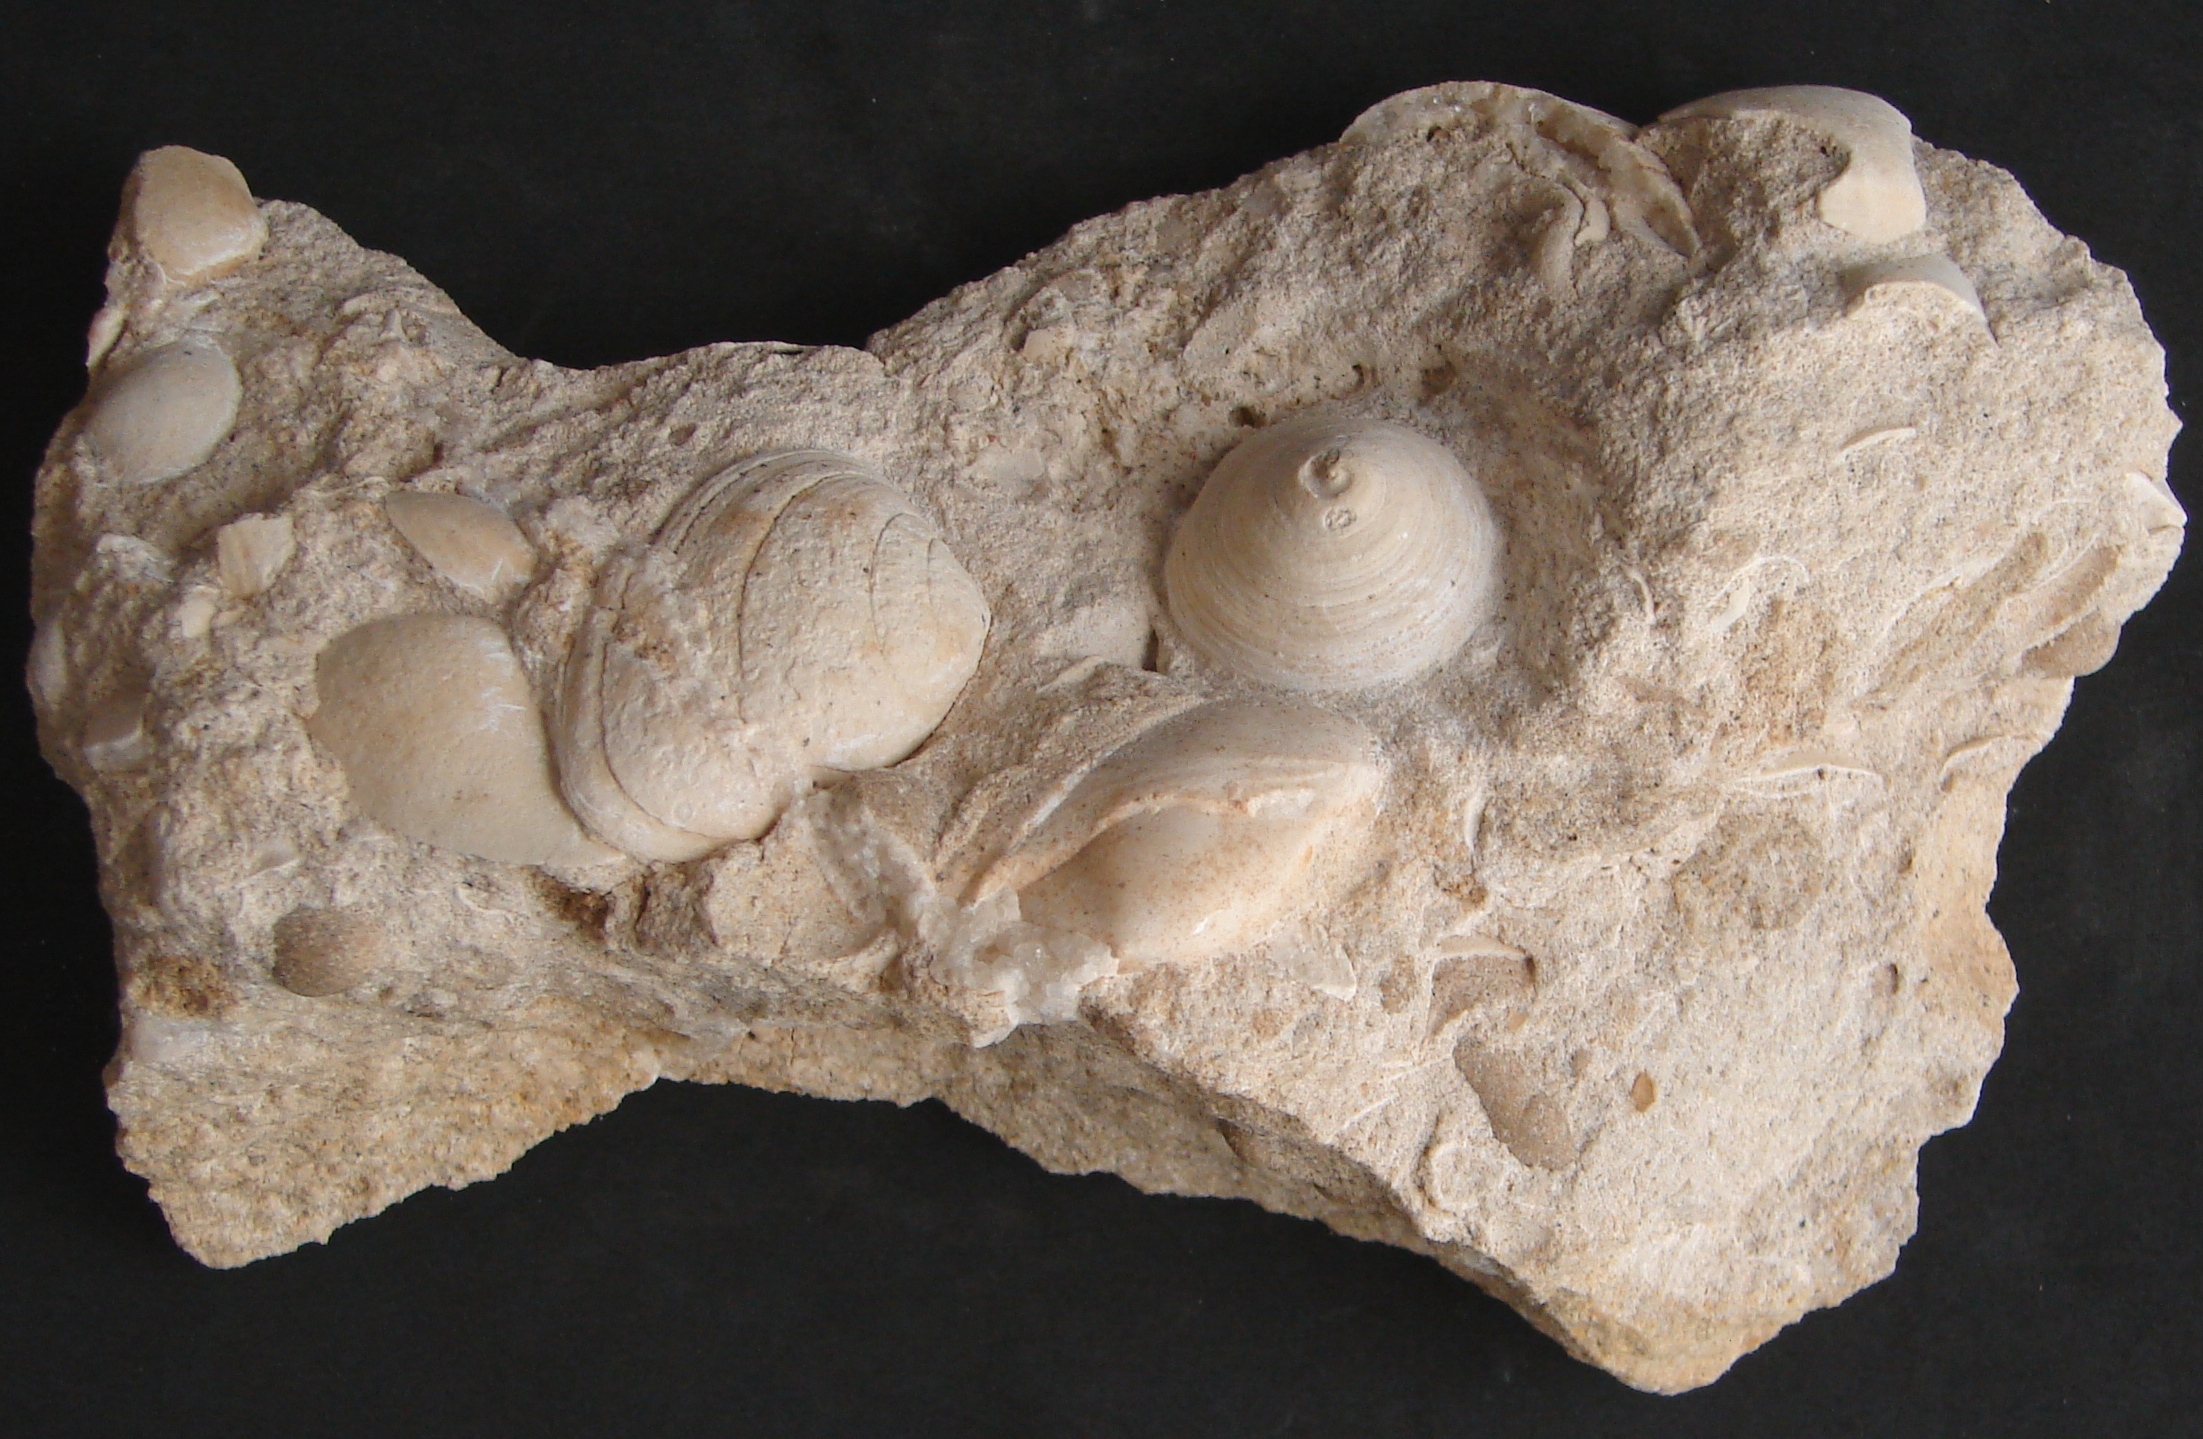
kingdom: Animalia
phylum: Mollusca
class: Gastropoda
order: Pleurotomariida
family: Trochotomidae
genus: Trochotoma
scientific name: Trochotoma vetusta
